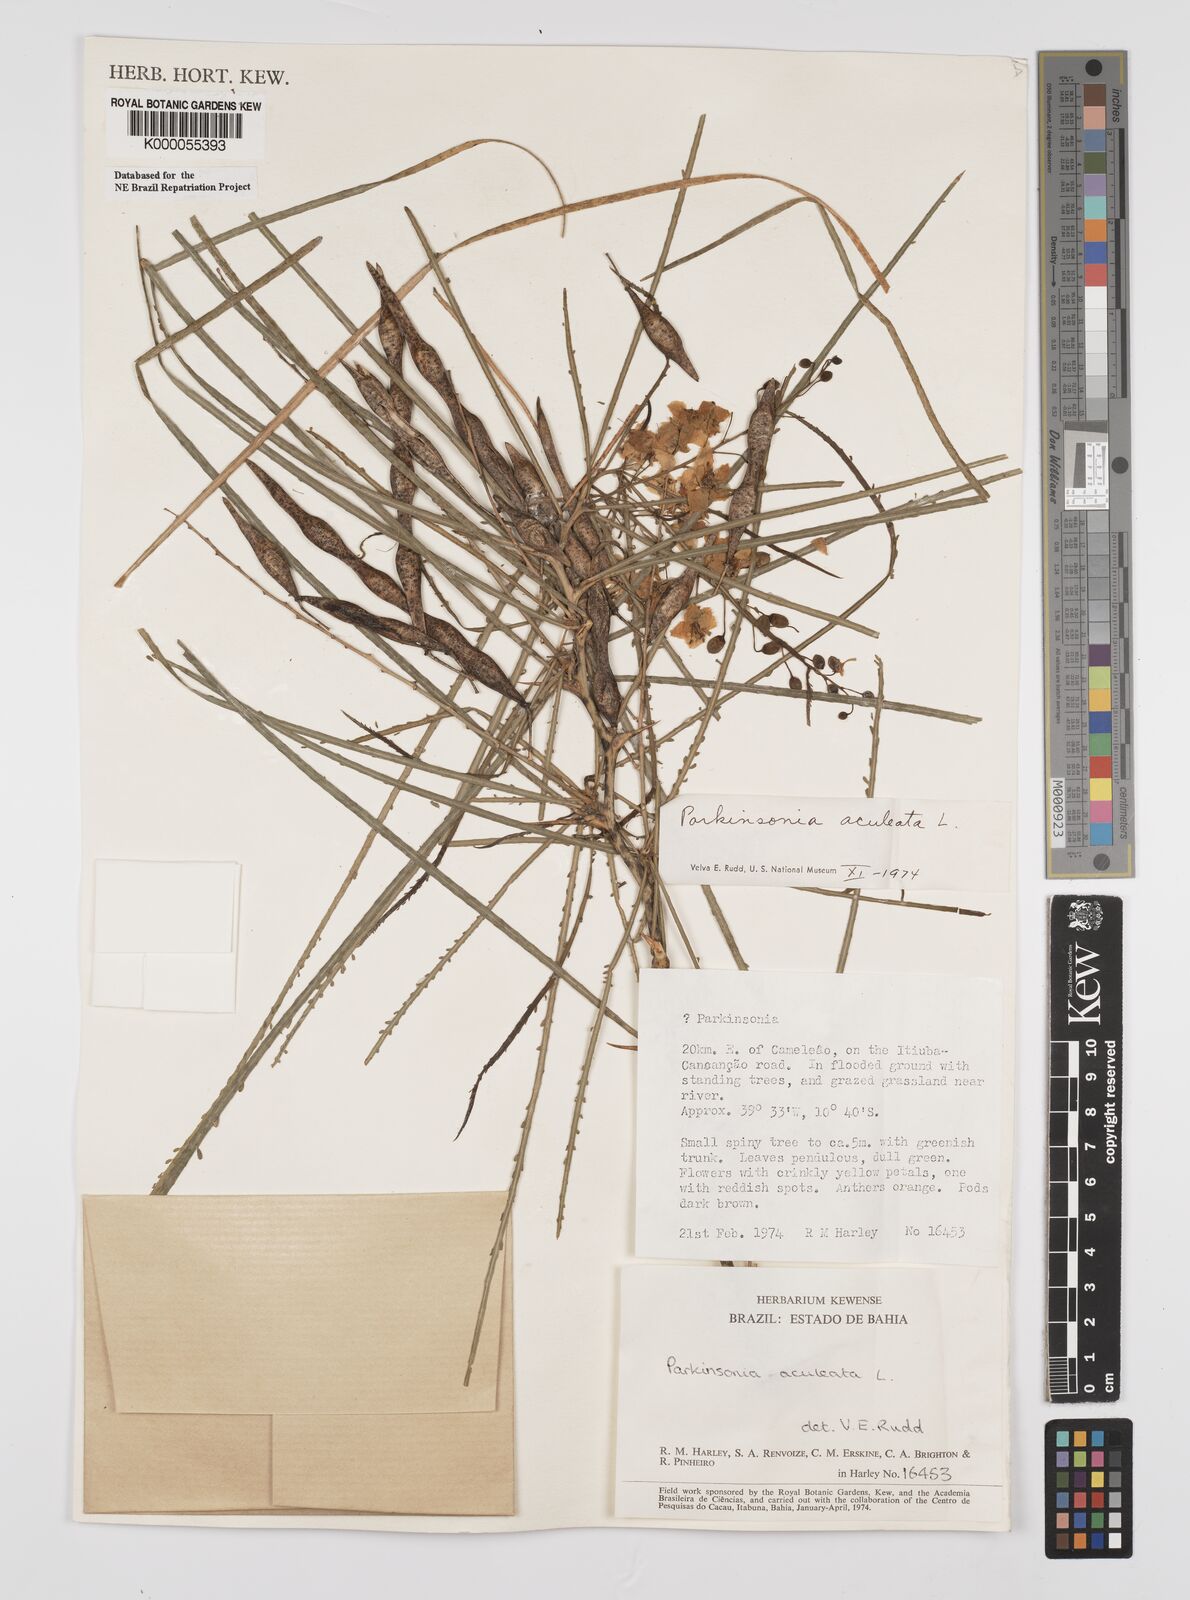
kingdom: Plantae
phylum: Tracheophyta
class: Magnoliopsida
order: Fabales
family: Fabaceae
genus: Parkinsonia
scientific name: Parkinsonia aculeata
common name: Jerusalem thorn
